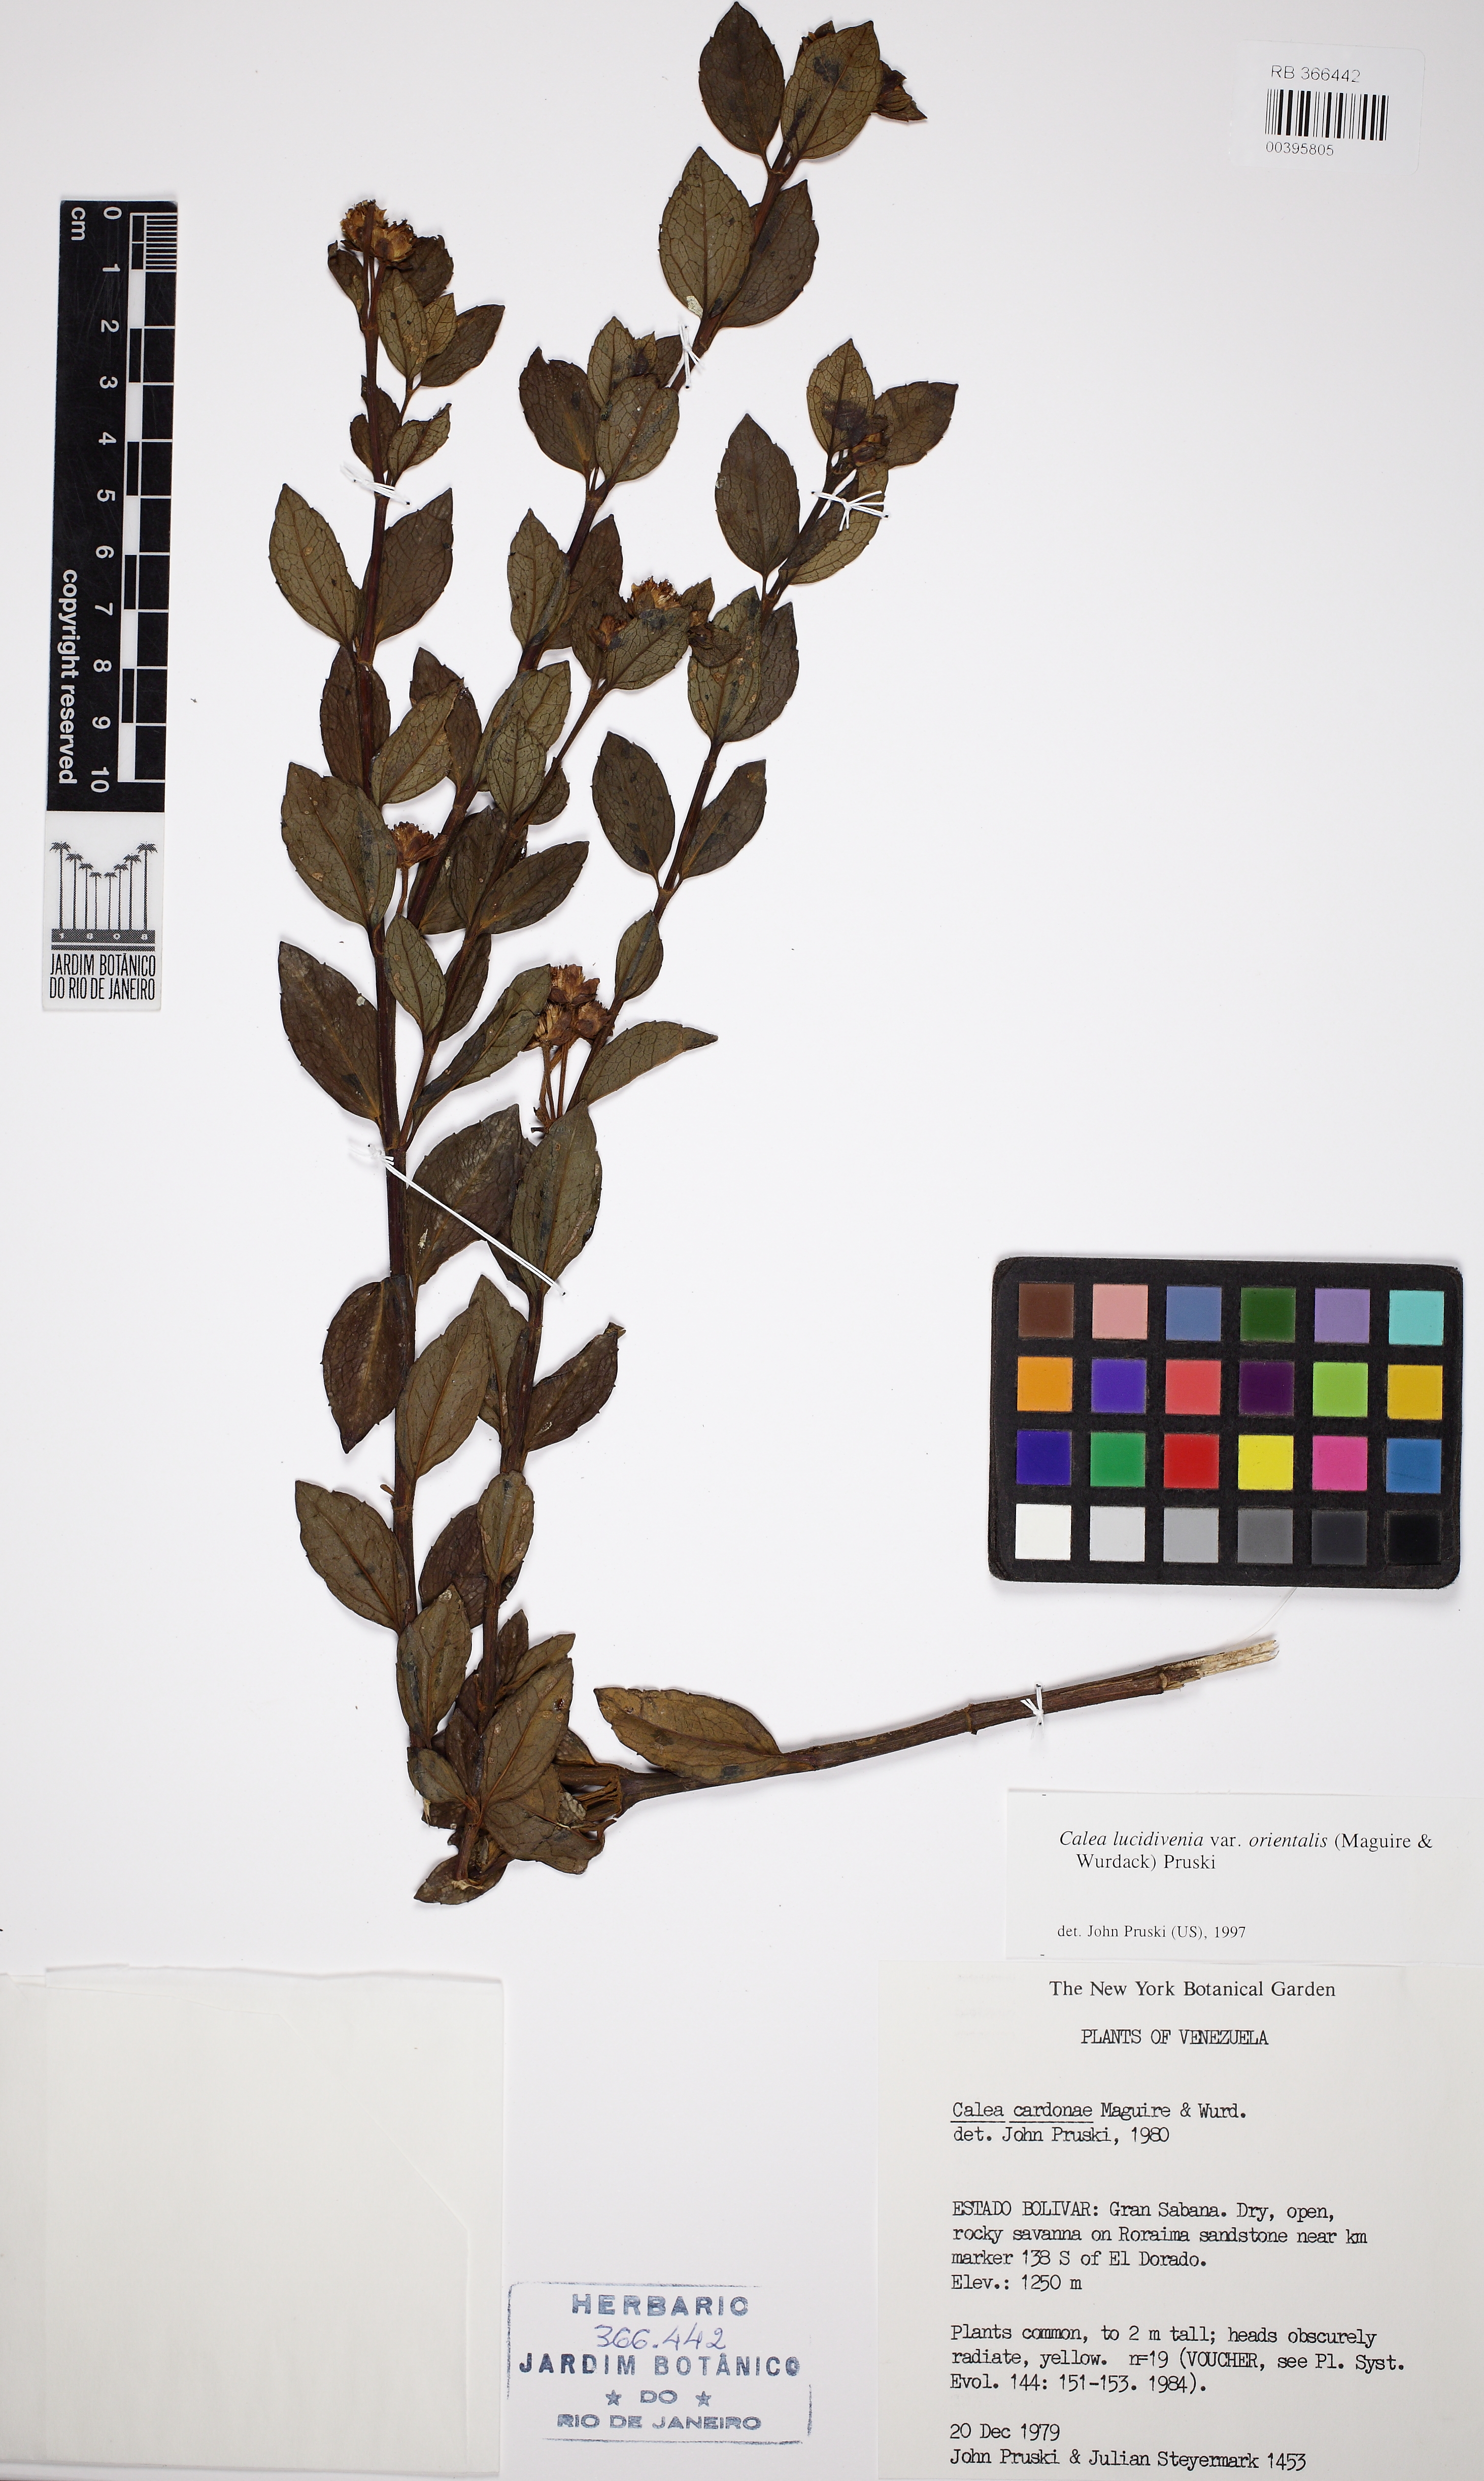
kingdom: Plantae
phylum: Tracheophyta
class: Magnoliopsida
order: Asterales
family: Asteraceae
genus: Calea
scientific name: Calea lucidivenia
